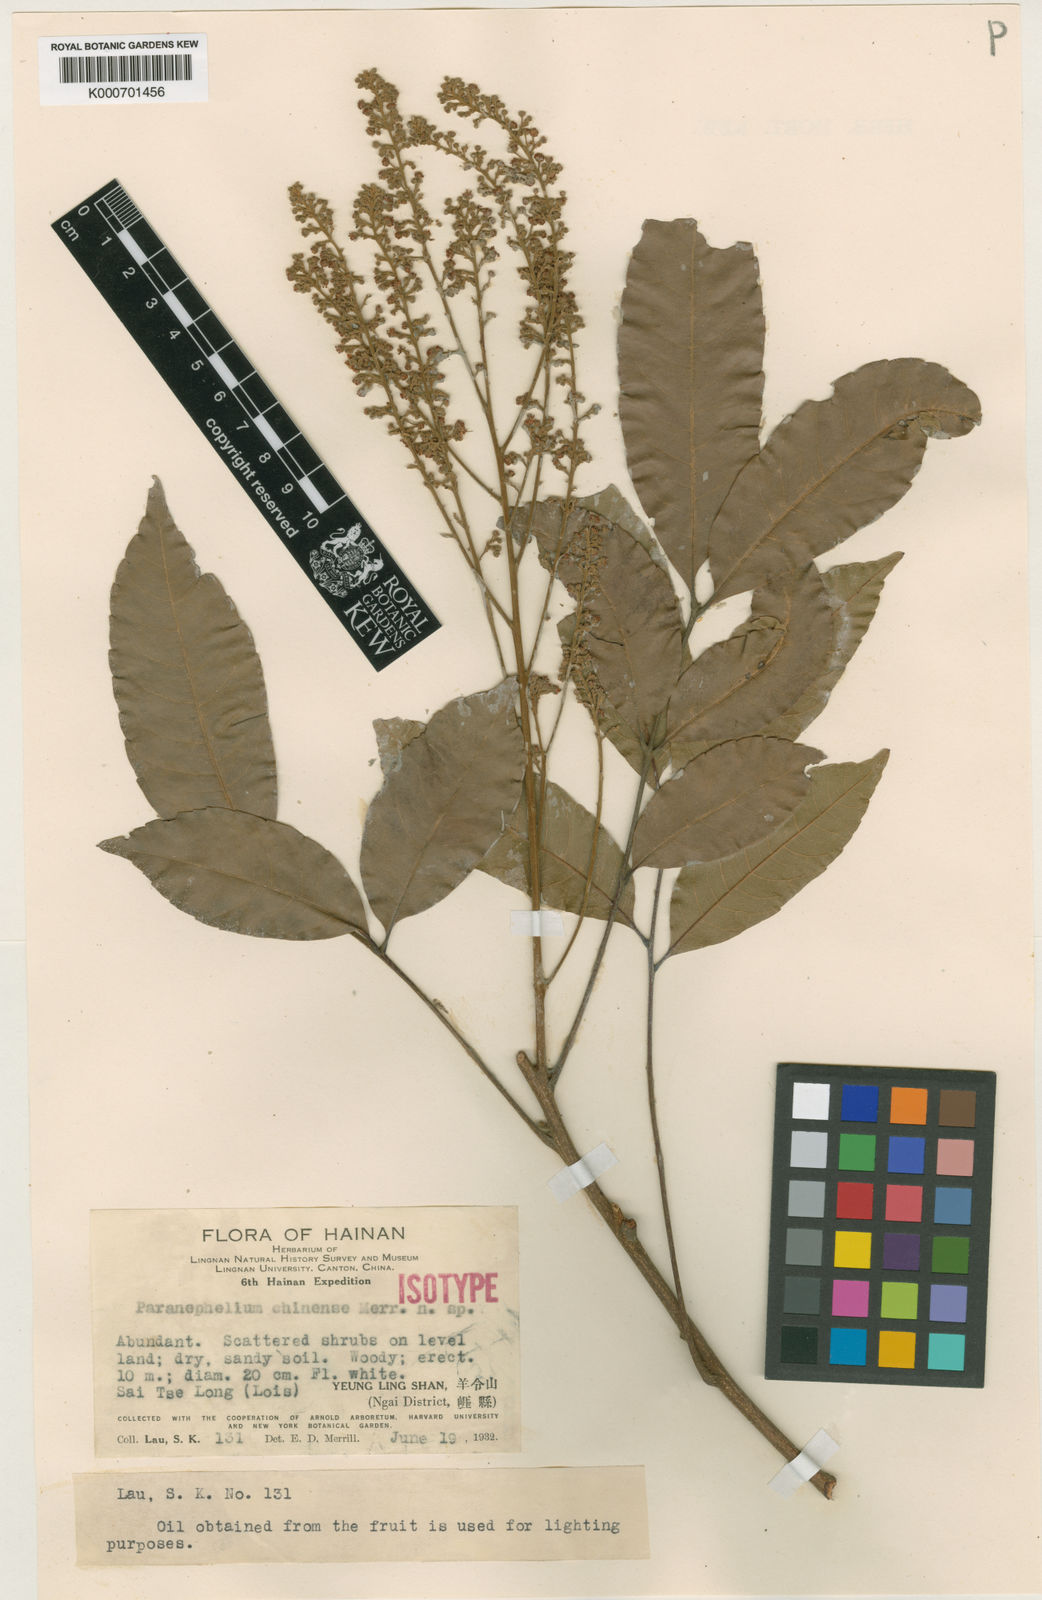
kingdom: Plantae
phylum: Tracheophyta
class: Magnoliopsida
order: Sapindales
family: Sapindaceae
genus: Amesiodendron
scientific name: Amesiodendron chinense
